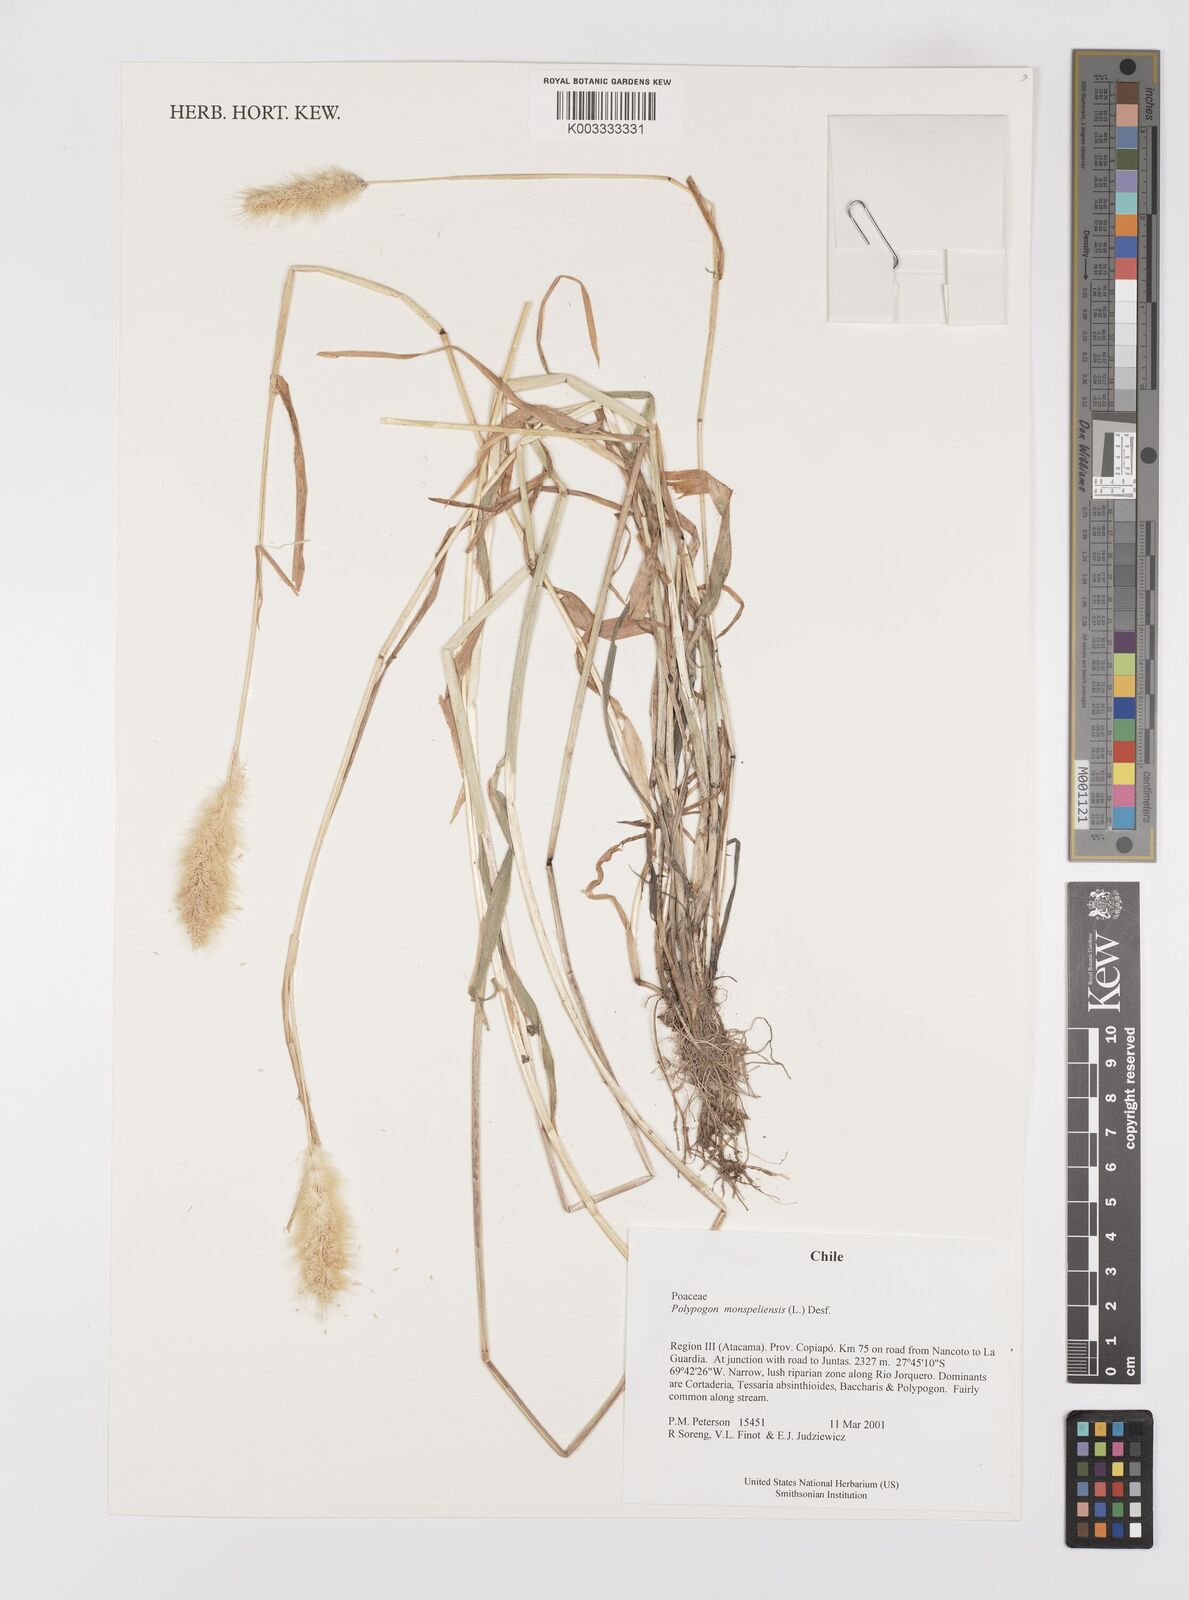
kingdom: Plantae
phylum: Tracheophyta
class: Liliopsida
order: Poales
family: Poaceae
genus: Polypogon
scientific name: Polypogon monspeliensis
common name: Annual rabbitsfoot grass
